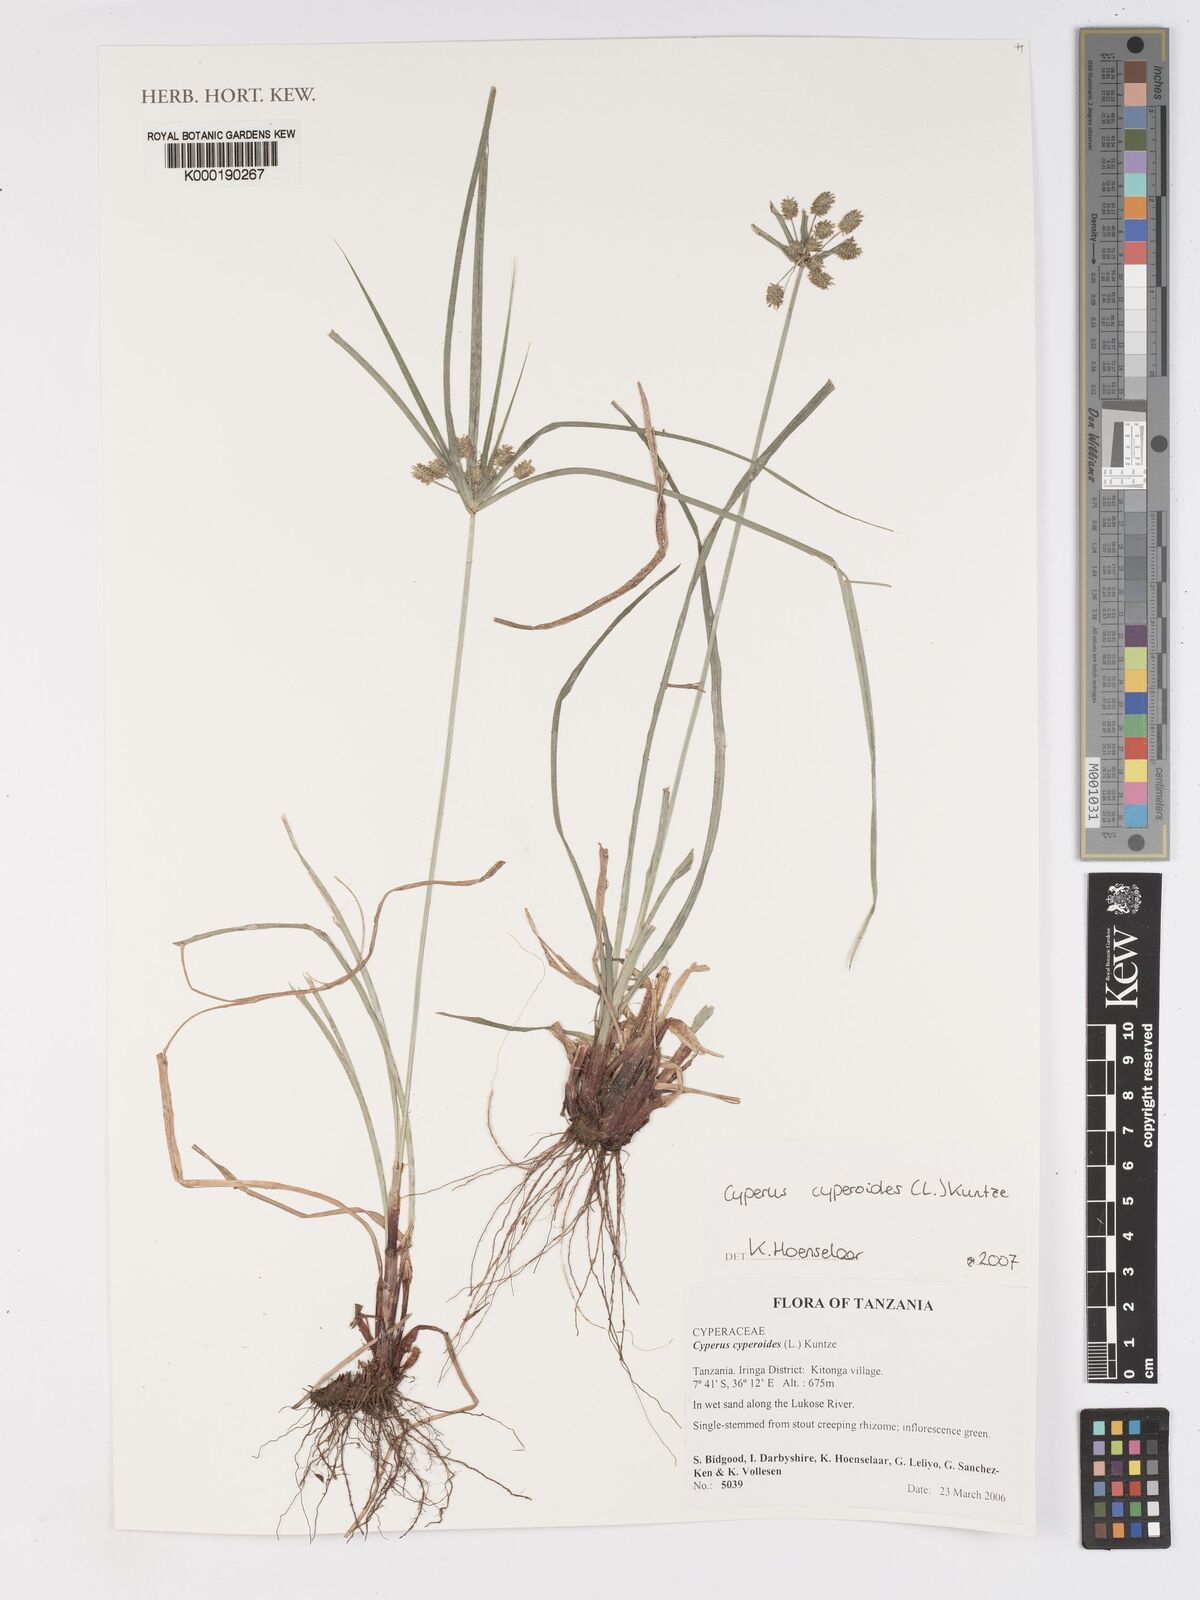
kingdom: Plantae
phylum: Tracheophyta
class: Liliopsida
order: Poales
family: Cyperaceae
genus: Cyperus
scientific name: Cyperus cyperoides
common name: Pacific island flat sedge
